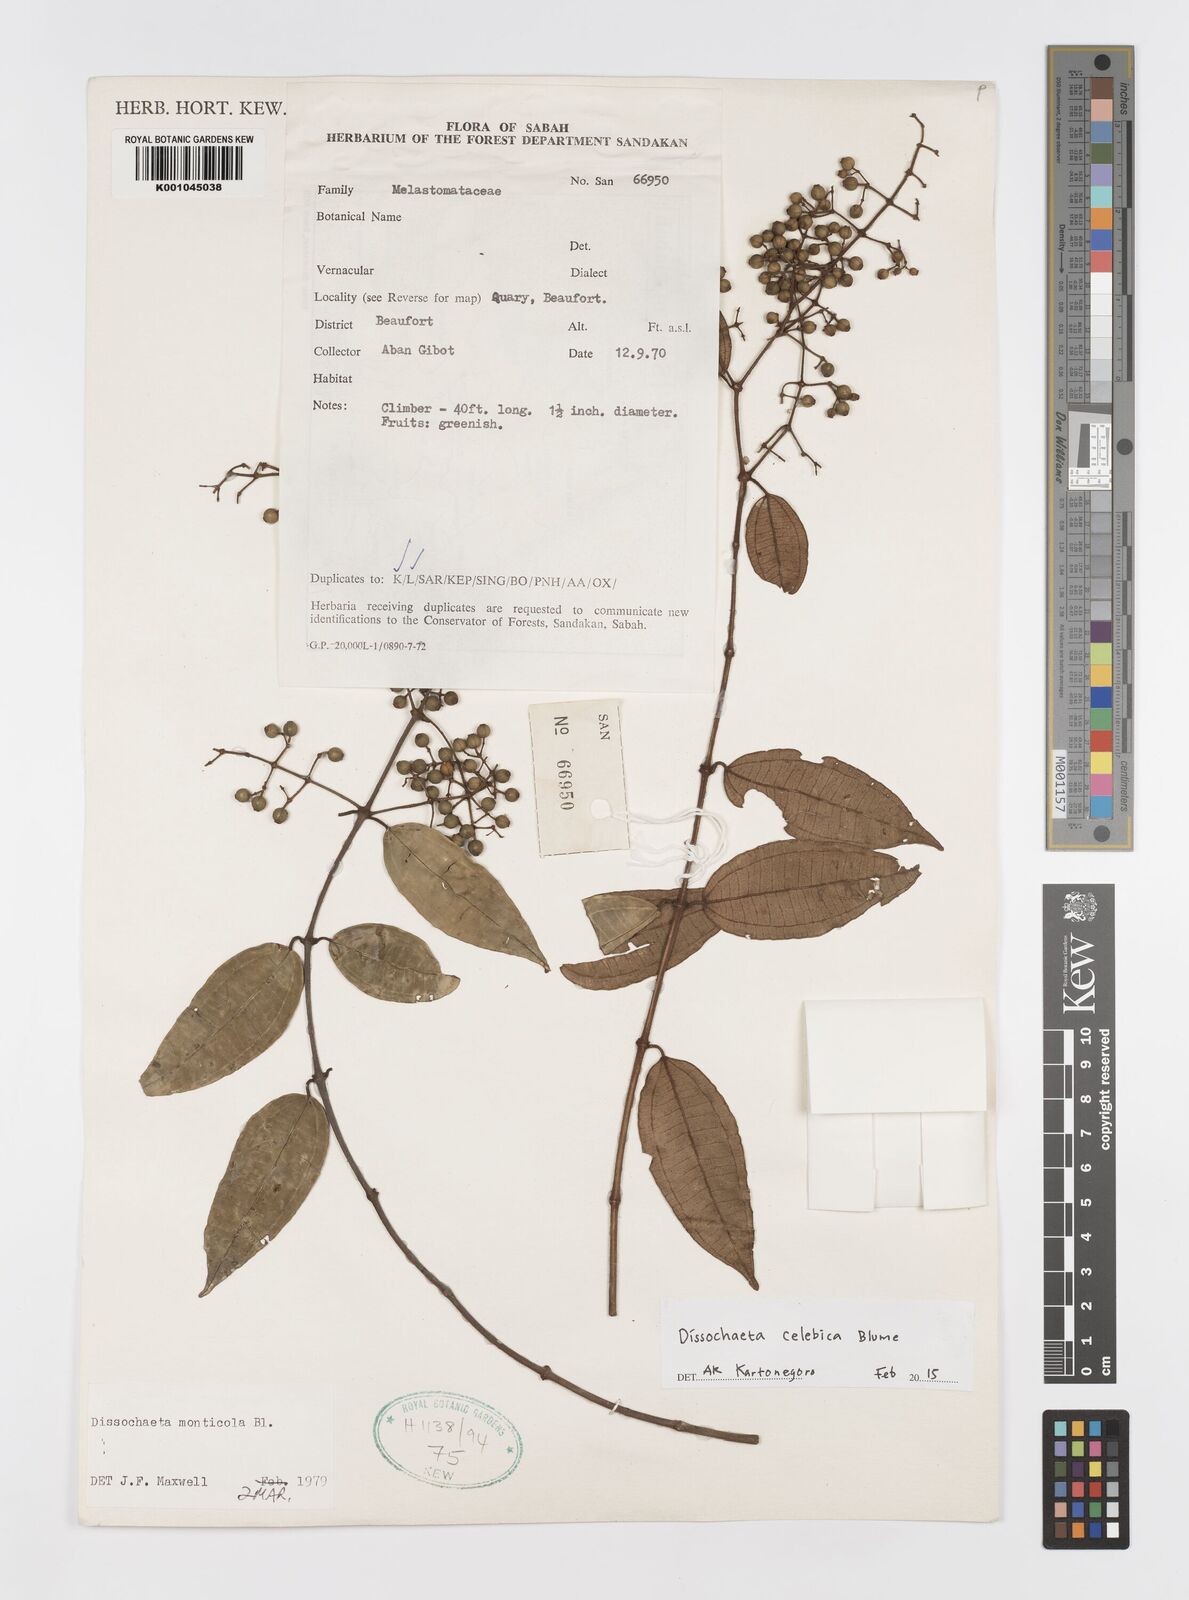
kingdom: Plantae
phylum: Tracheophyta
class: Magnoliopsida
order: Myrtales
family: Melastomataceae
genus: Dissochaeta
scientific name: Dissochaeta celebica
